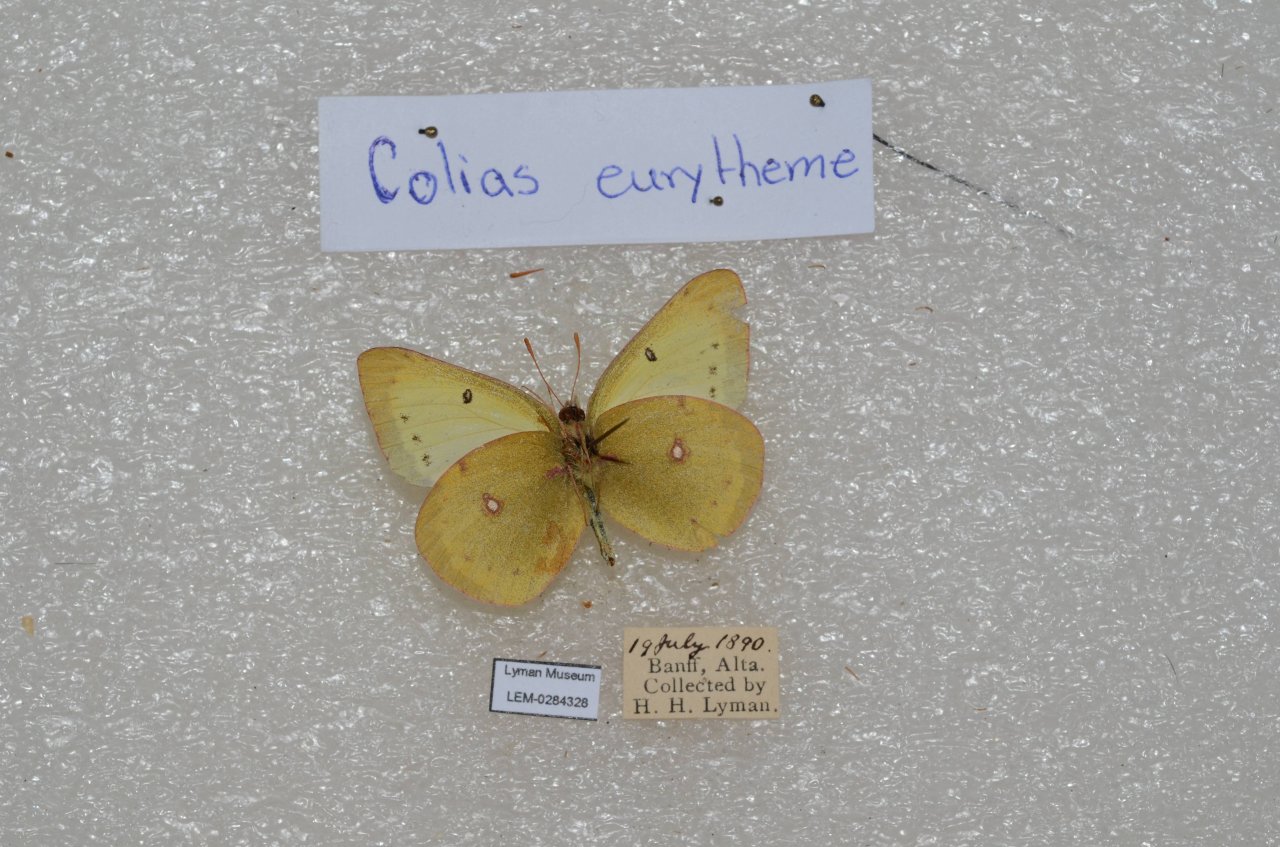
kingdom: Animalia
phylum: Arthropoda
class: Insecta
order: Lepidoptera
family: Pieridae
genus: Colias
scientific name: Colias eurytheme
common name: Orange Sulphur
